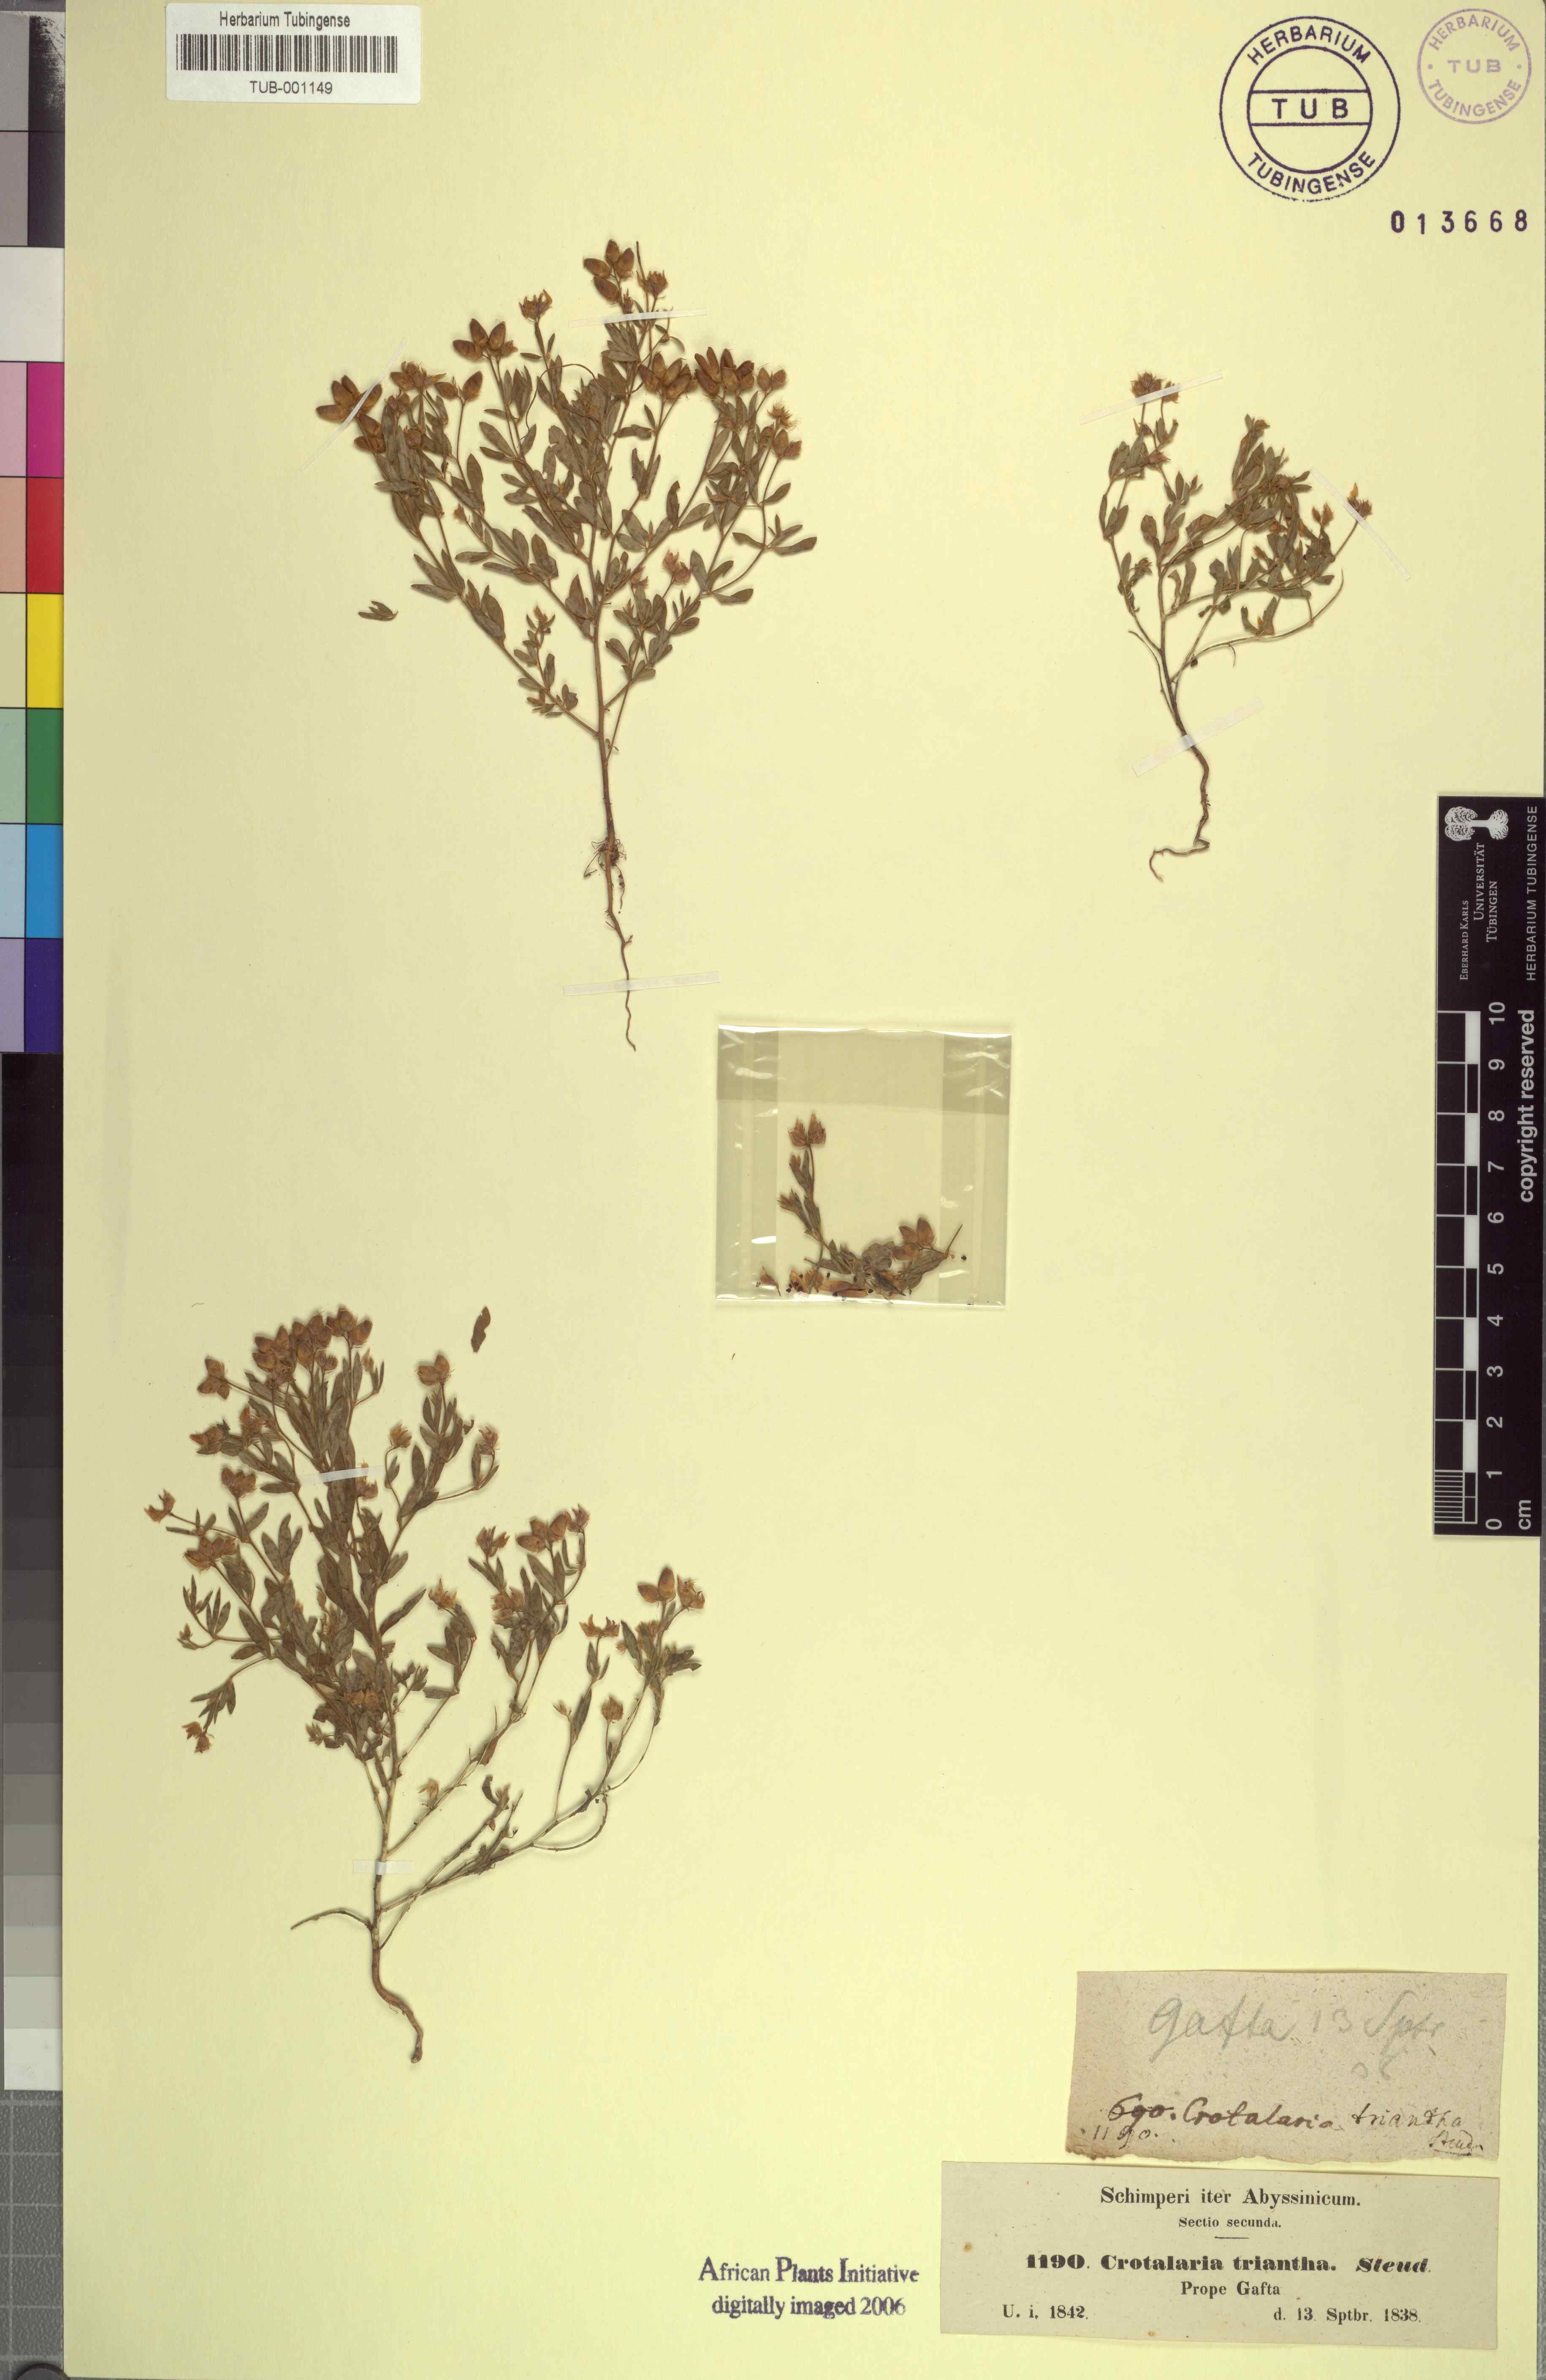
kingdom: Plantae
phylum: Tracheophyta
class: Magnoliopsida
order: Fabales
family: Fabaceae
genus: Crotalaria
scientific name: Crotalaria microcarpa
